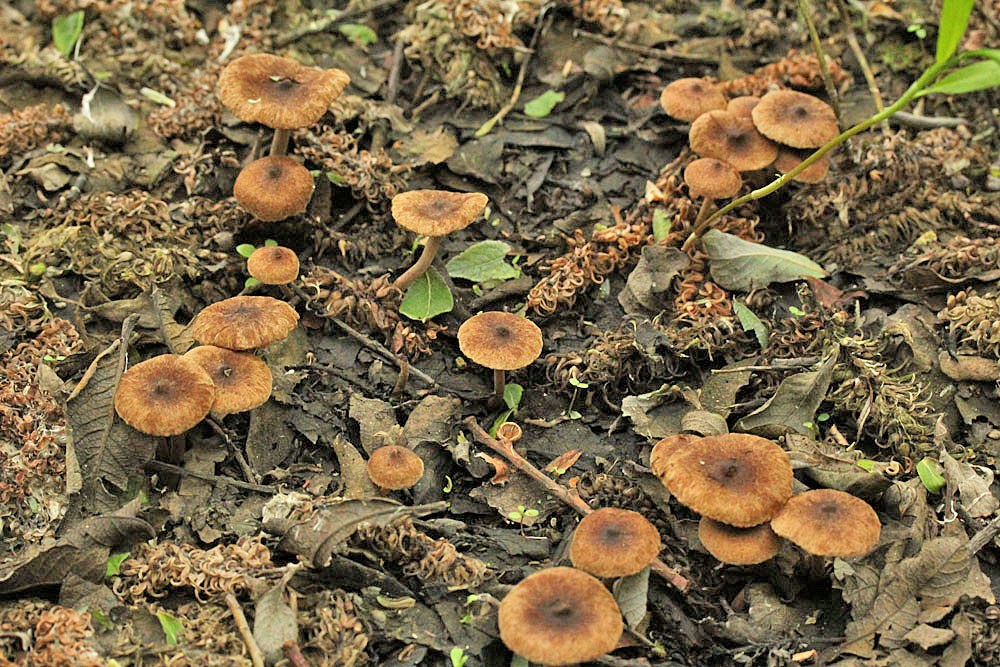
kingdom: Fungi
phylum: Basidiomycota
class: Agaricomycetes
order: Agaricales
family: Inocybaceae
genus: Inocybe
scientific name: Inocybe lacera
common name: laset trævlhat
